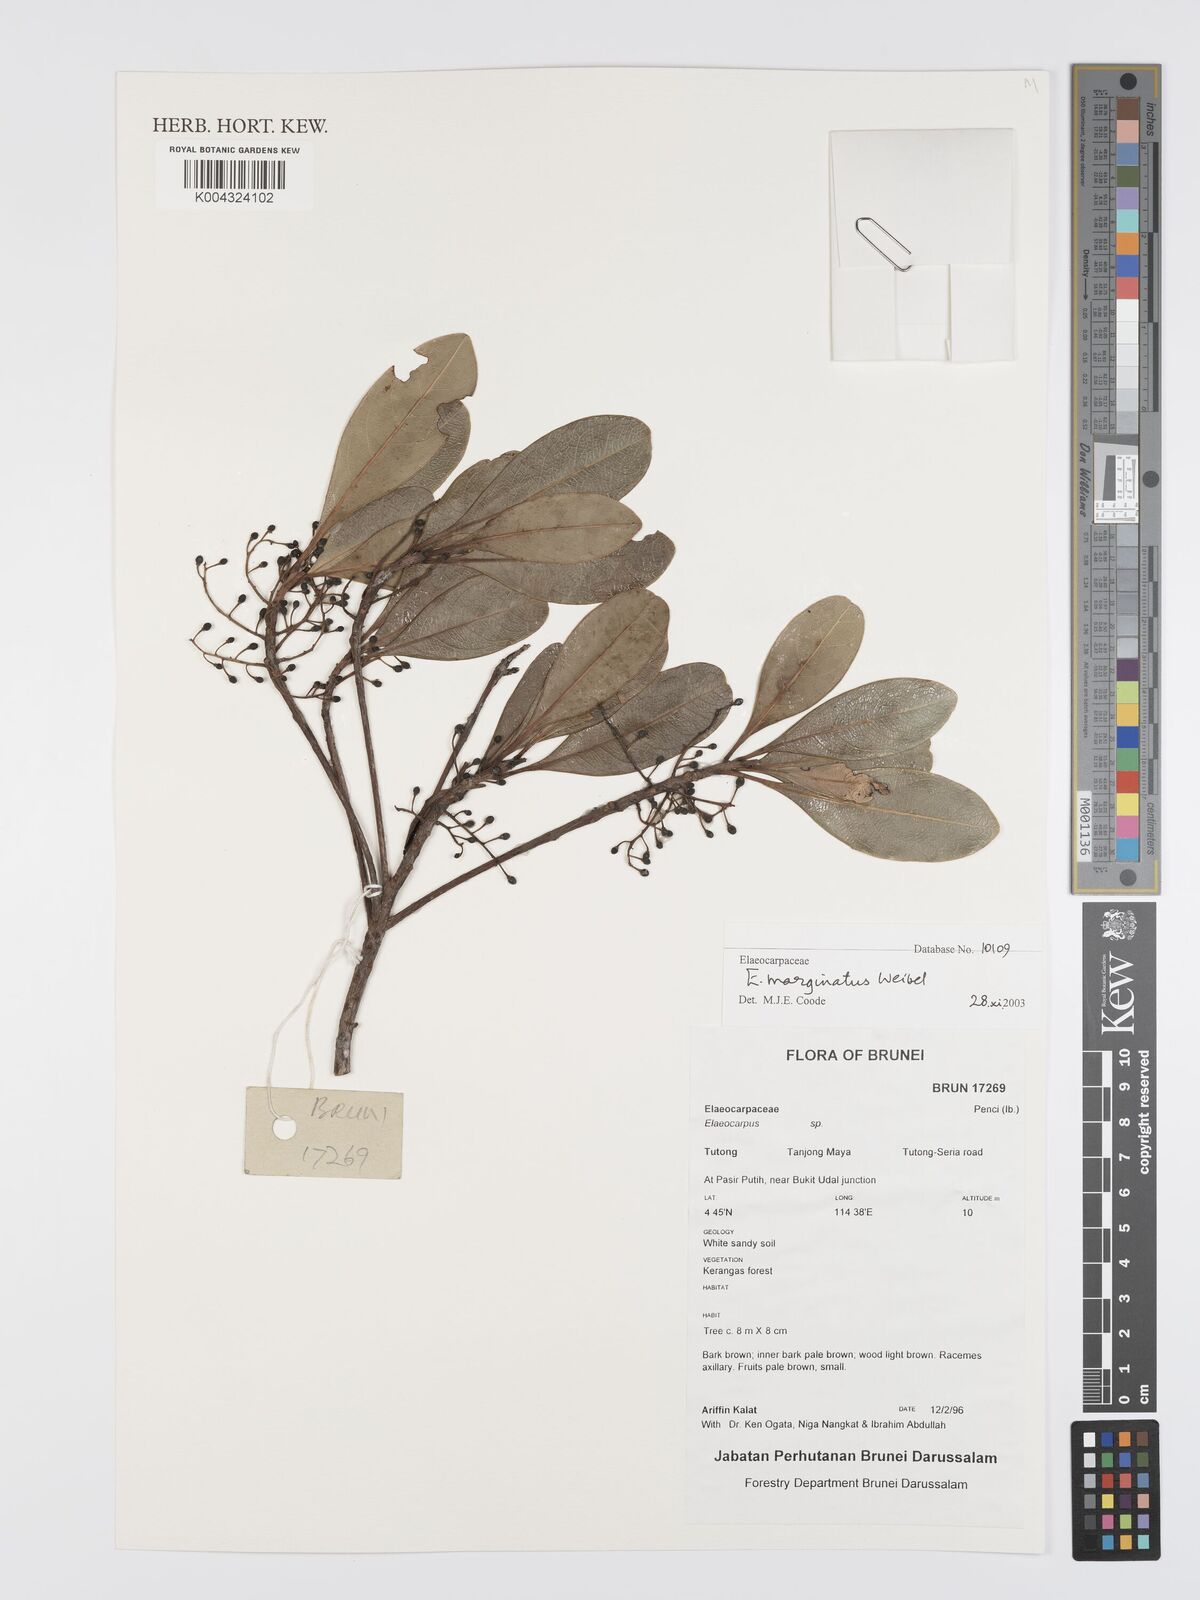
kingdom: Plantae
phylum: Tracheophyta
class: Magnoliopsida
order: Oxalidales
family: Elaeocarpaceae
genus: Elaeocarpus
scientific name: Elaeocarpus marginatus
